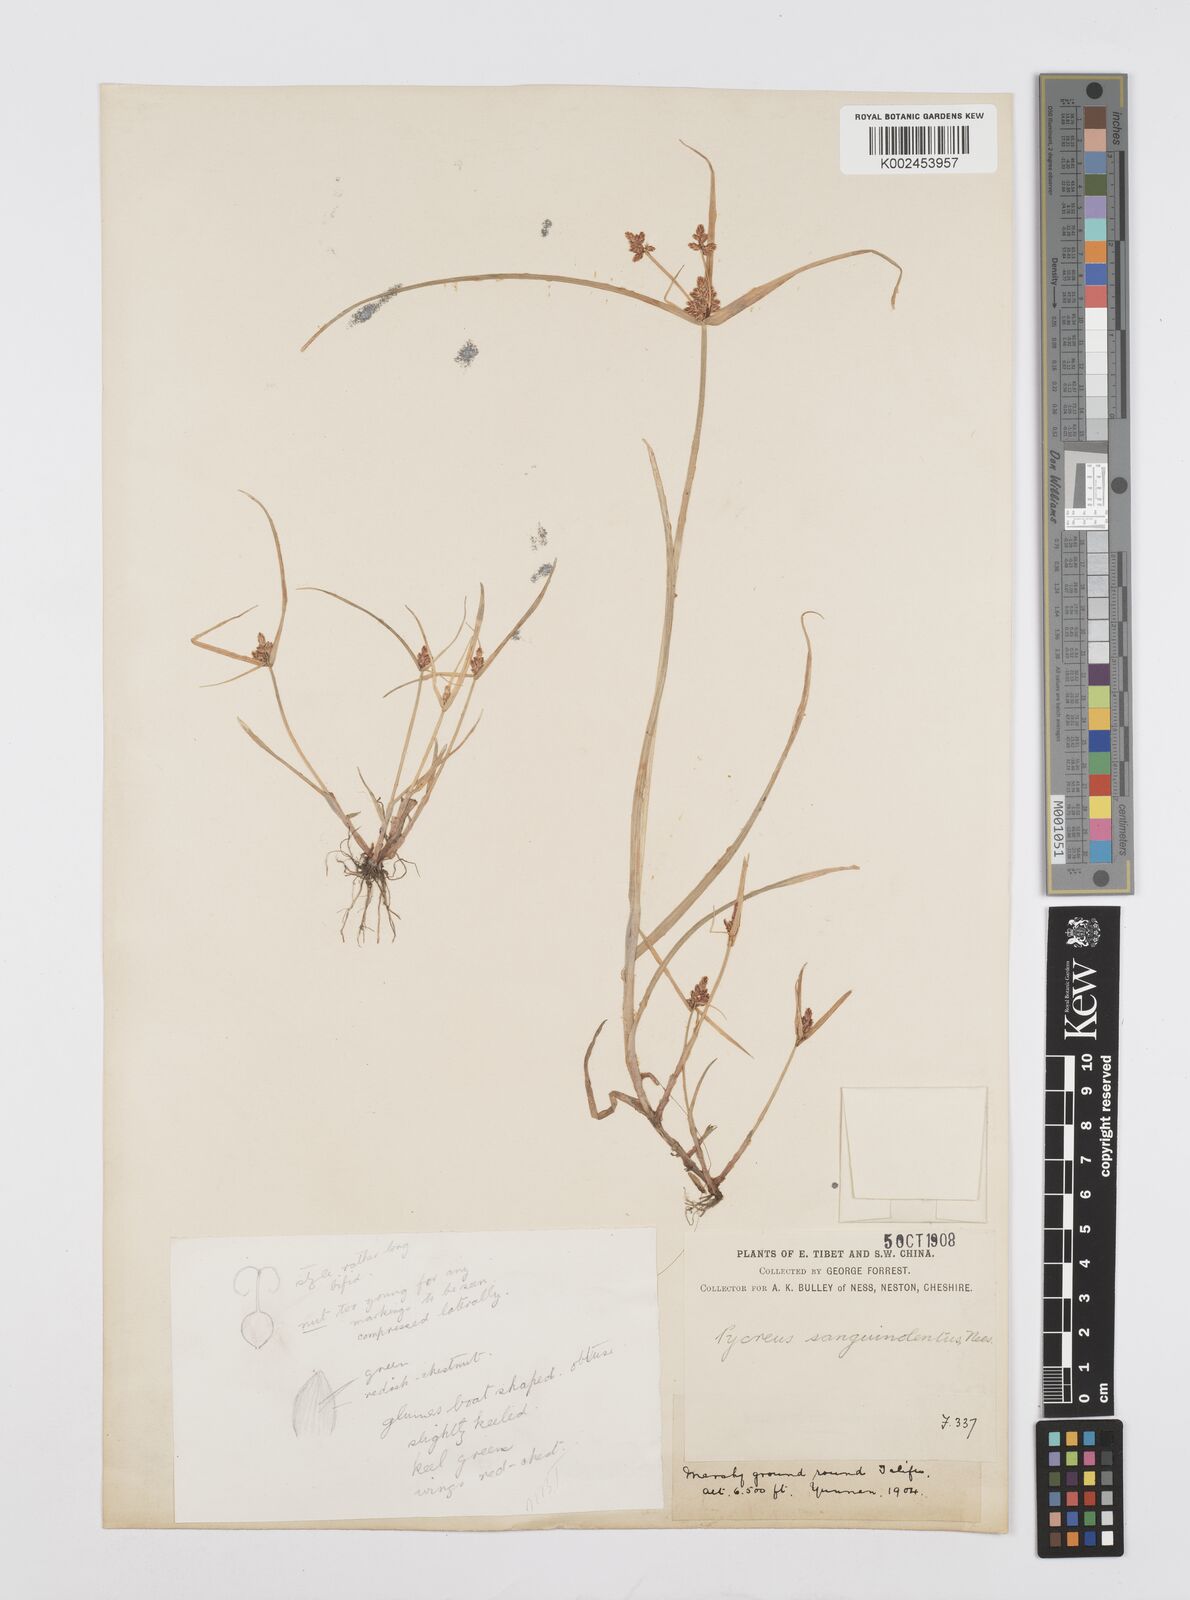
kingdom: Plantae
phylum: Tracheophyta
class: Liliopsida
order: Poales
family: Cyperaceae
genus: Cyperus
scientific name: Cyperus sanguinolentus
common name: Purpleglume flatsedge
